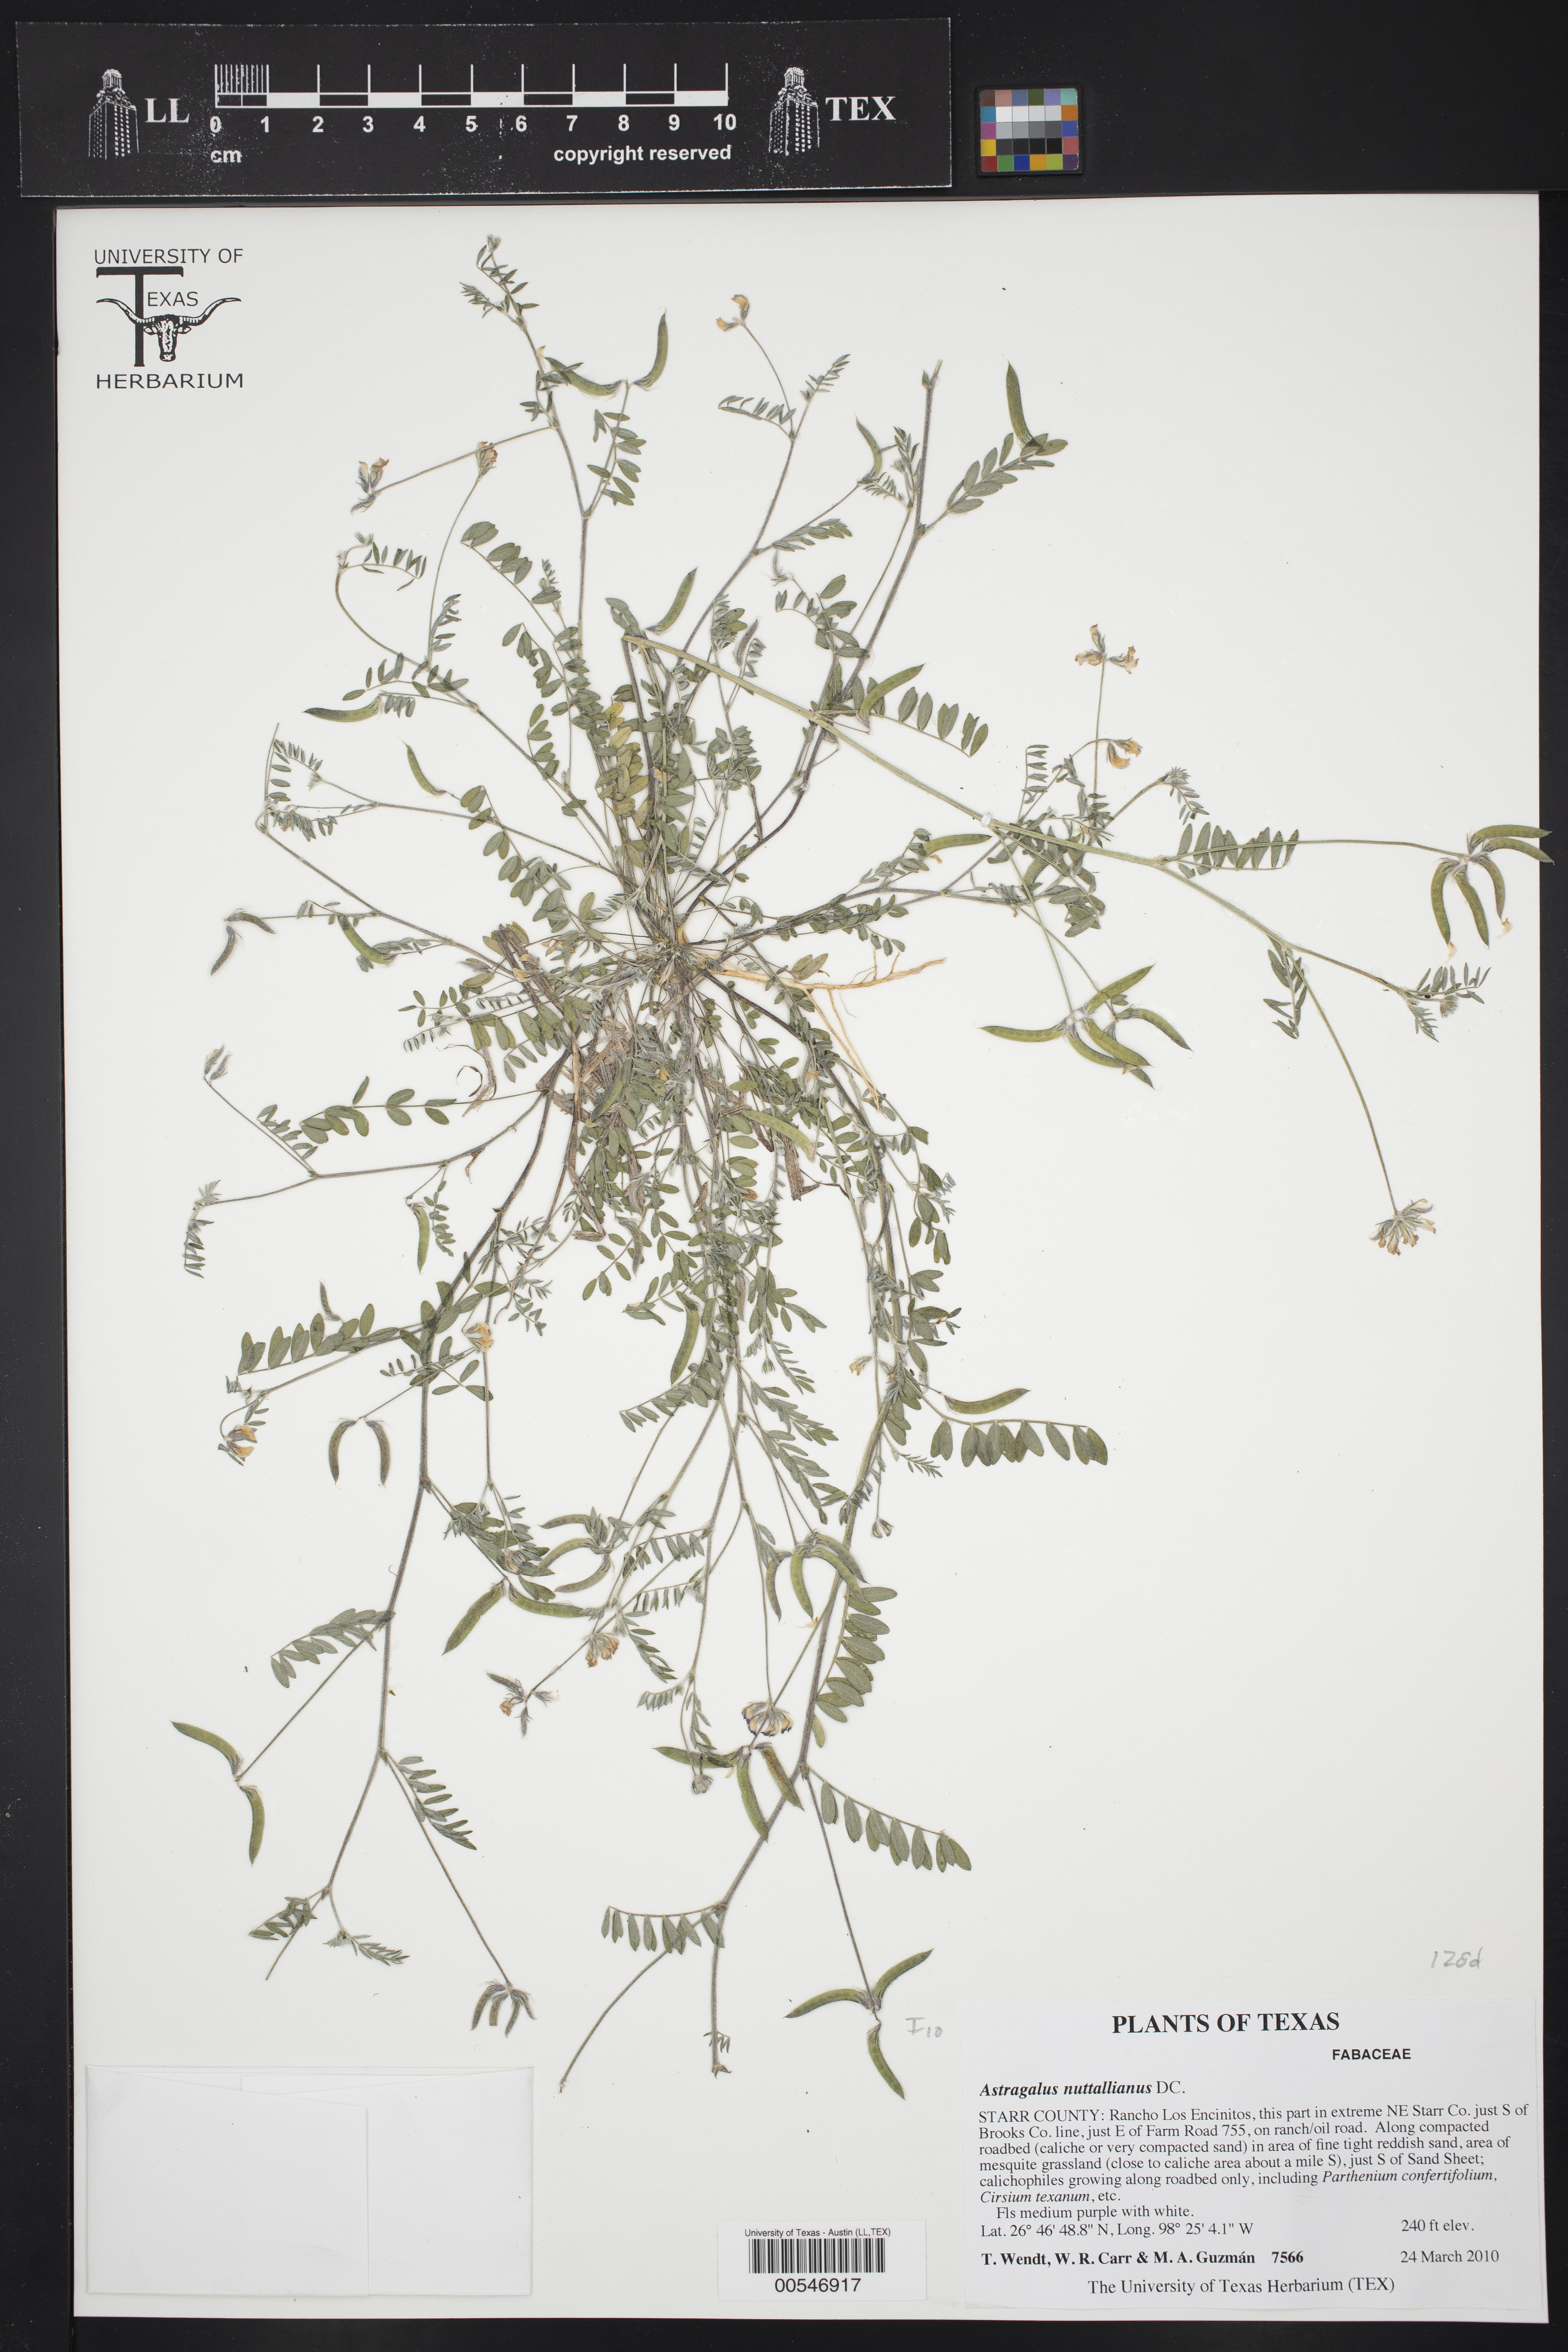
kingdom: Plantae
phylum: Tracheophyta
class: Magnoliopsida
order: Fabales
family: Fabaceae
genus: Astragalus
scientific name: Astragalus nuttallianus
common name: Smallflowered milkvetch
